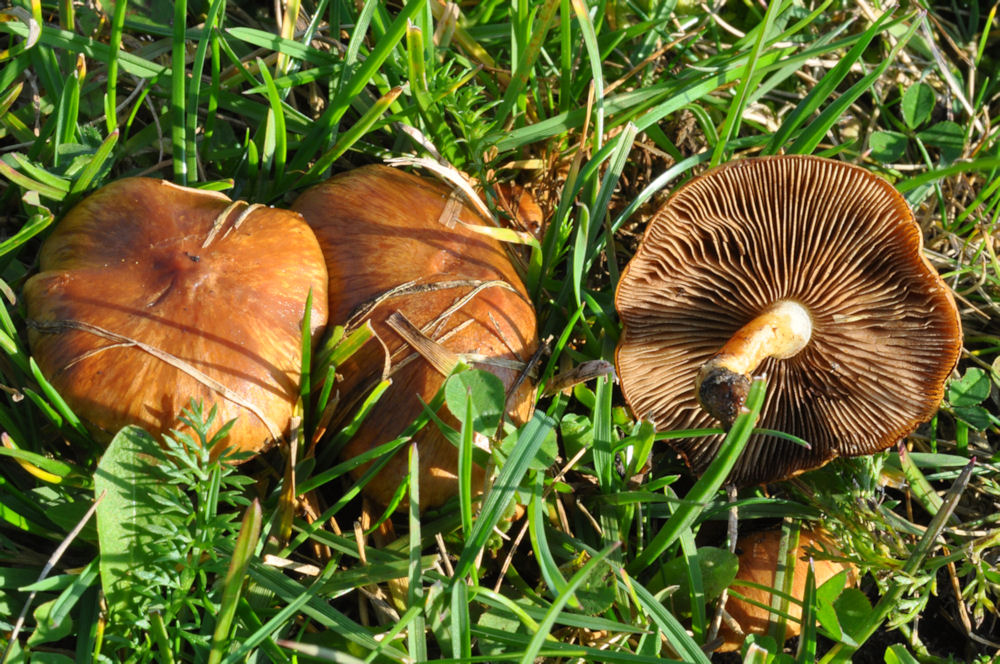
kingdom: Fungi
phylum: Basidiomycota
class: Agaricomycetes
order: Agaricales
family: Strophariaceae
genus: Pholiota
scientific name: Pholiota conissans
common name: pile-skælhat
